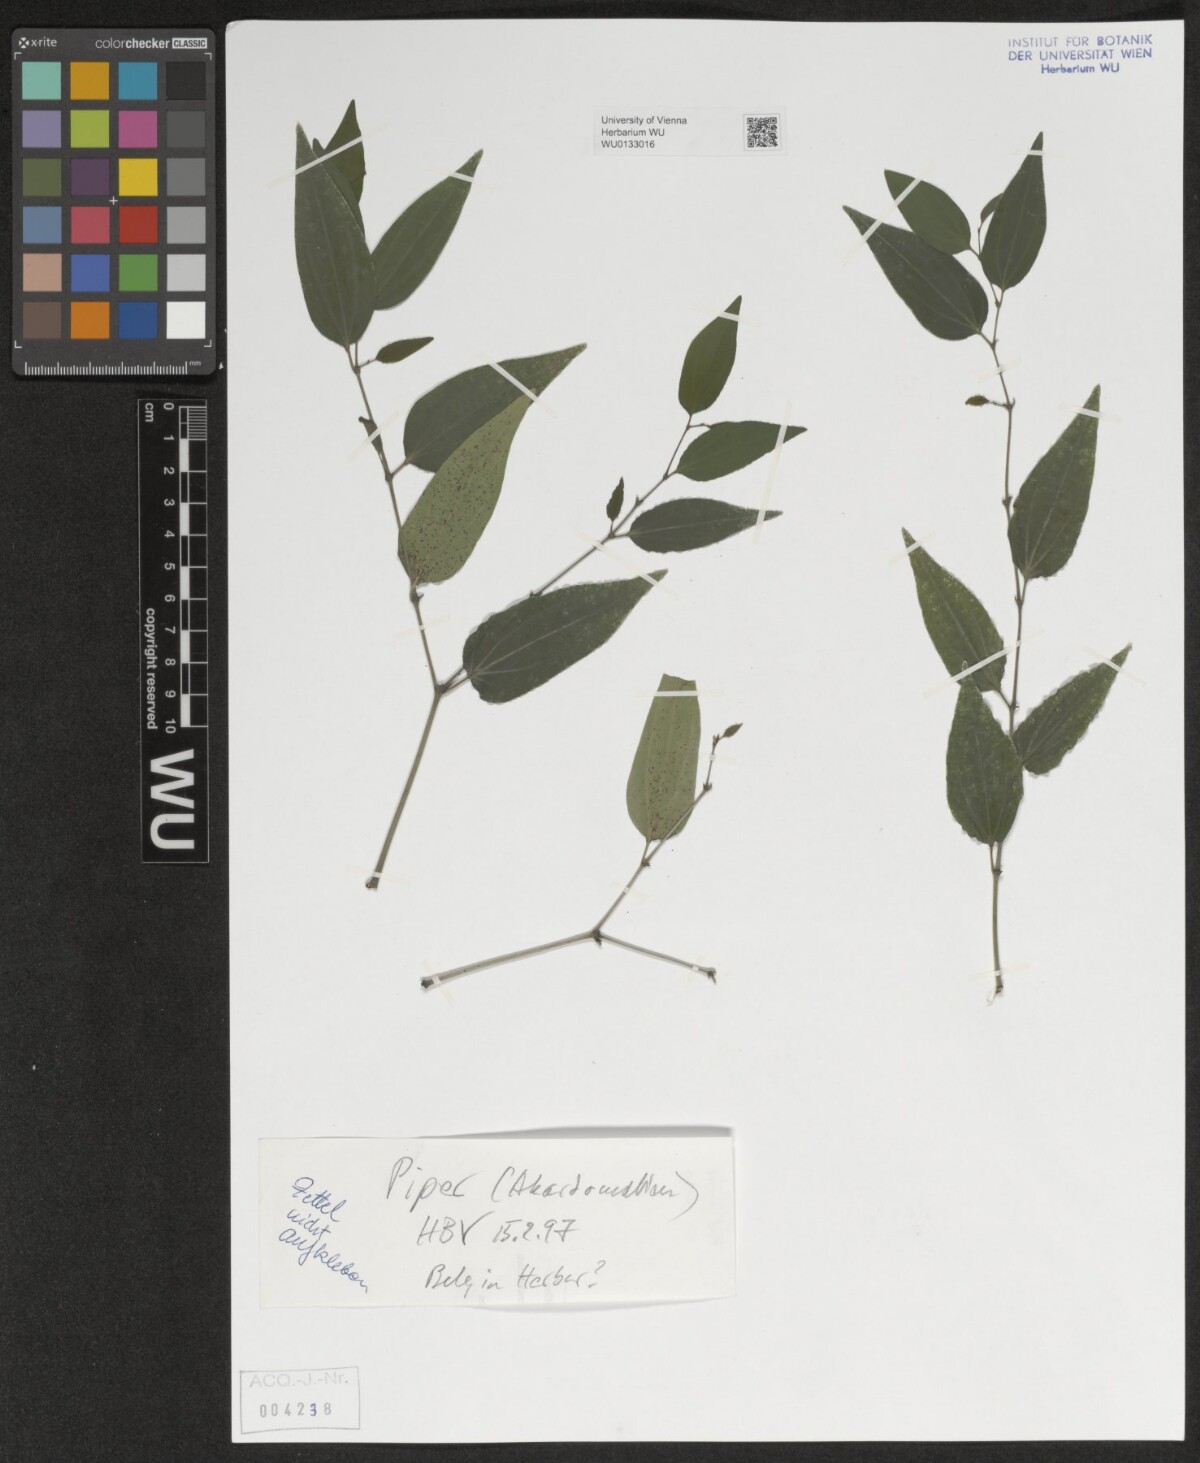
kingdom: Plantae
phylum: Tracheophyta
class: Magnoliopsida
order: Piperales
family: Piperaceae
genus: Piper
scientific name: Piper
